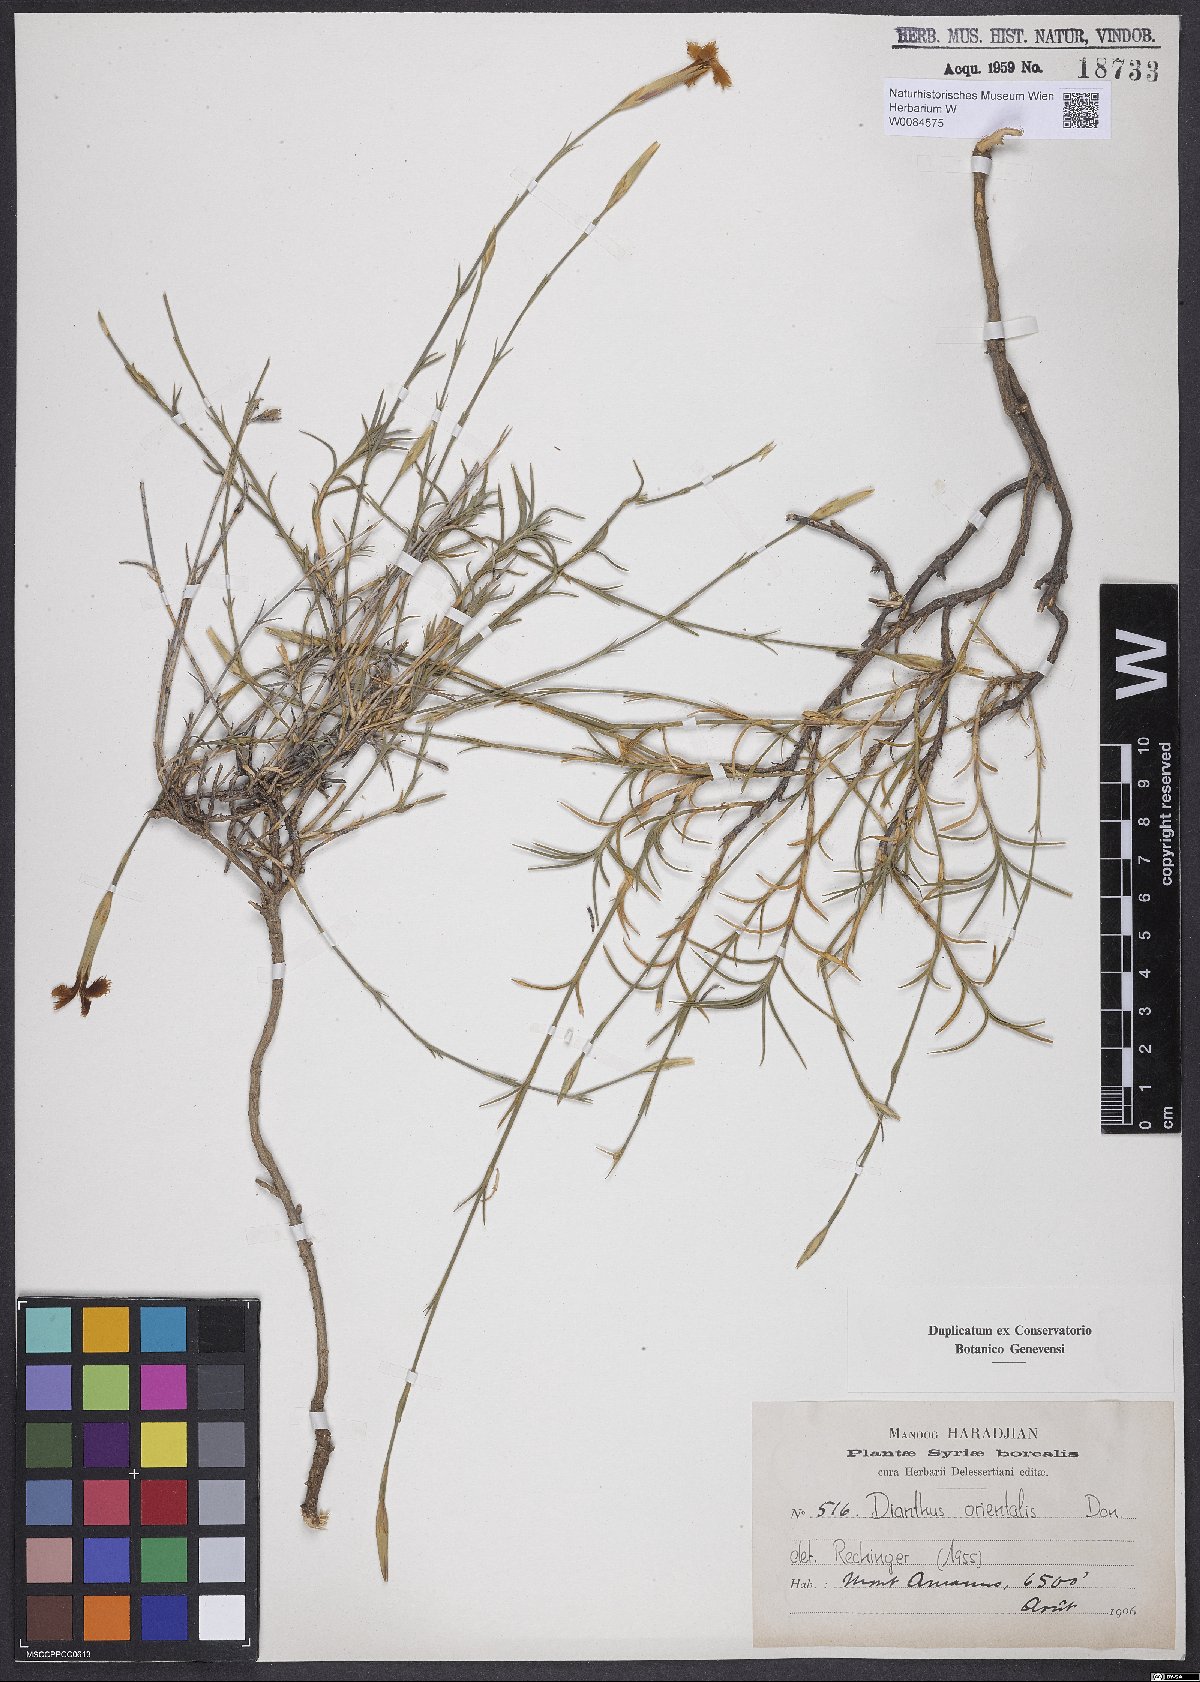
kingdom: Plantae
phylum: Tracheophyta
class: Magnoliopsida
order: Caryophyllales
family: Caryophyllaceae
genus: Dianthus
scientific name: Dianthus orientalis
